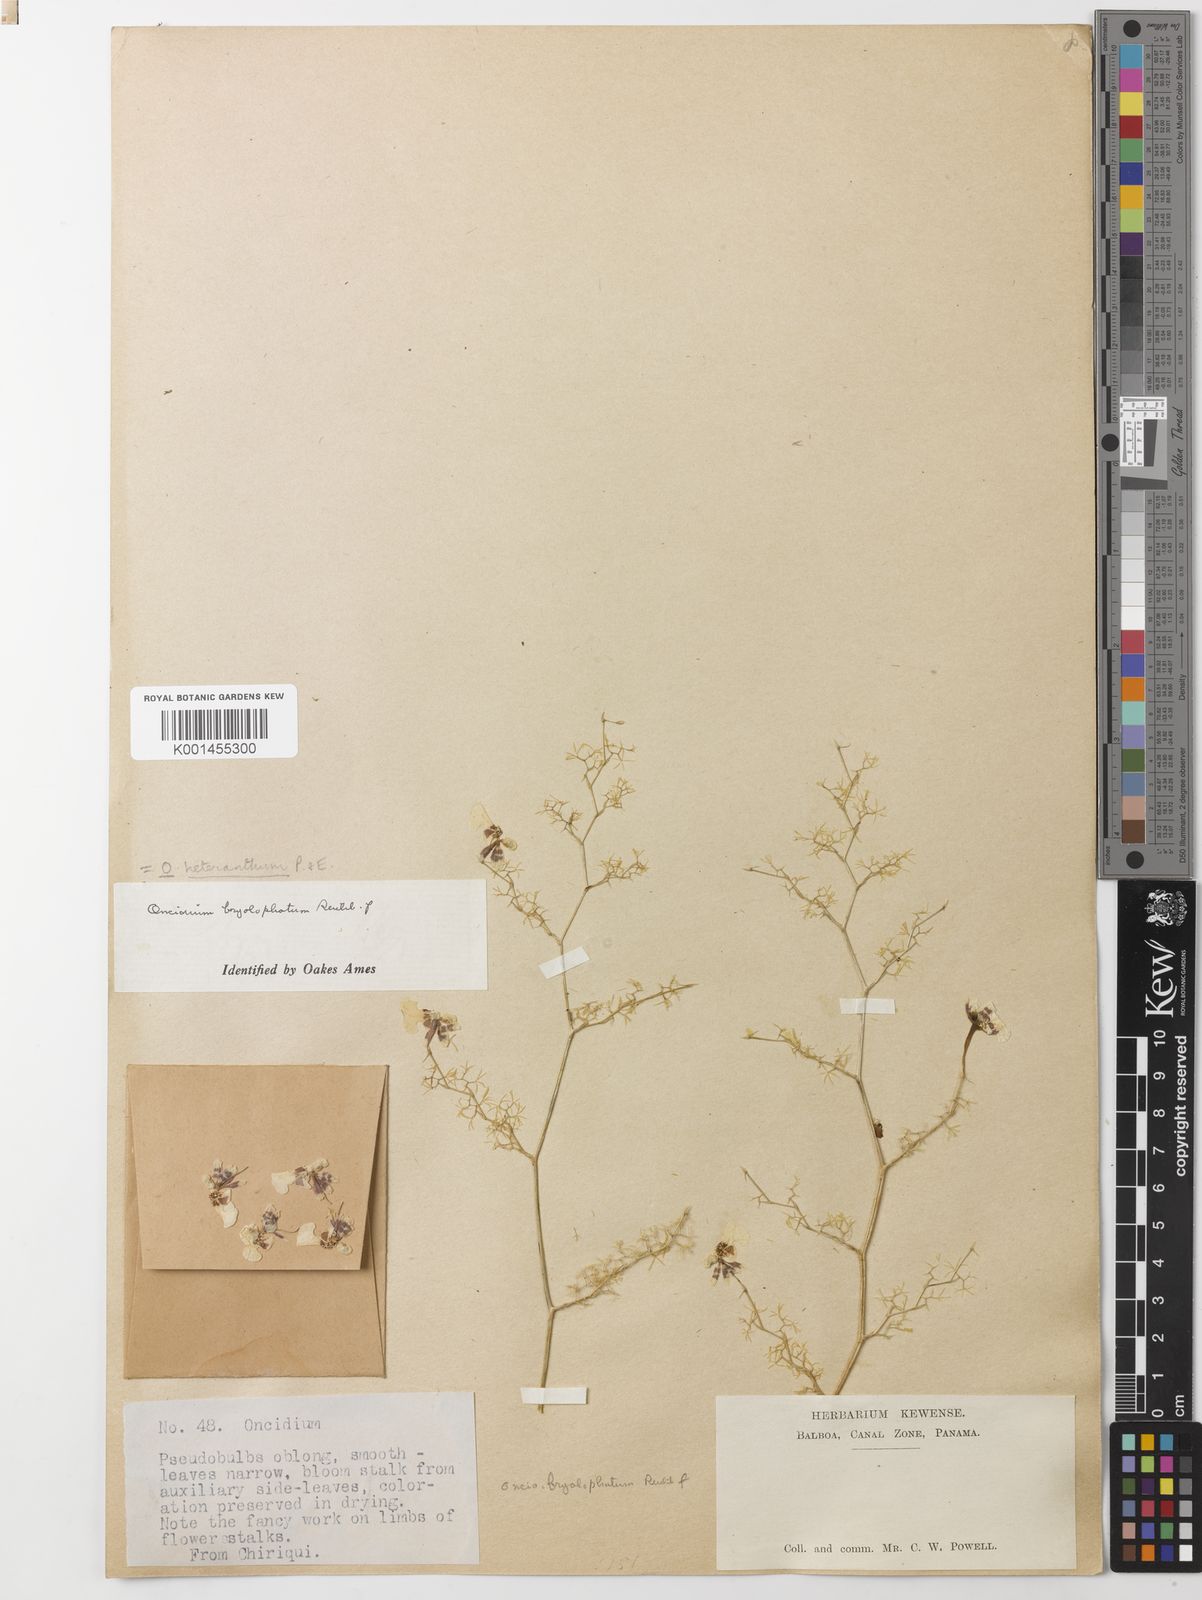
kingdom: Plantae
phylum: Tracheophyta
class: Liliopsida
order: Asparagales
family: Orchidaceae
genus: Oncidium
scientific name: Oncidium heteranthum
